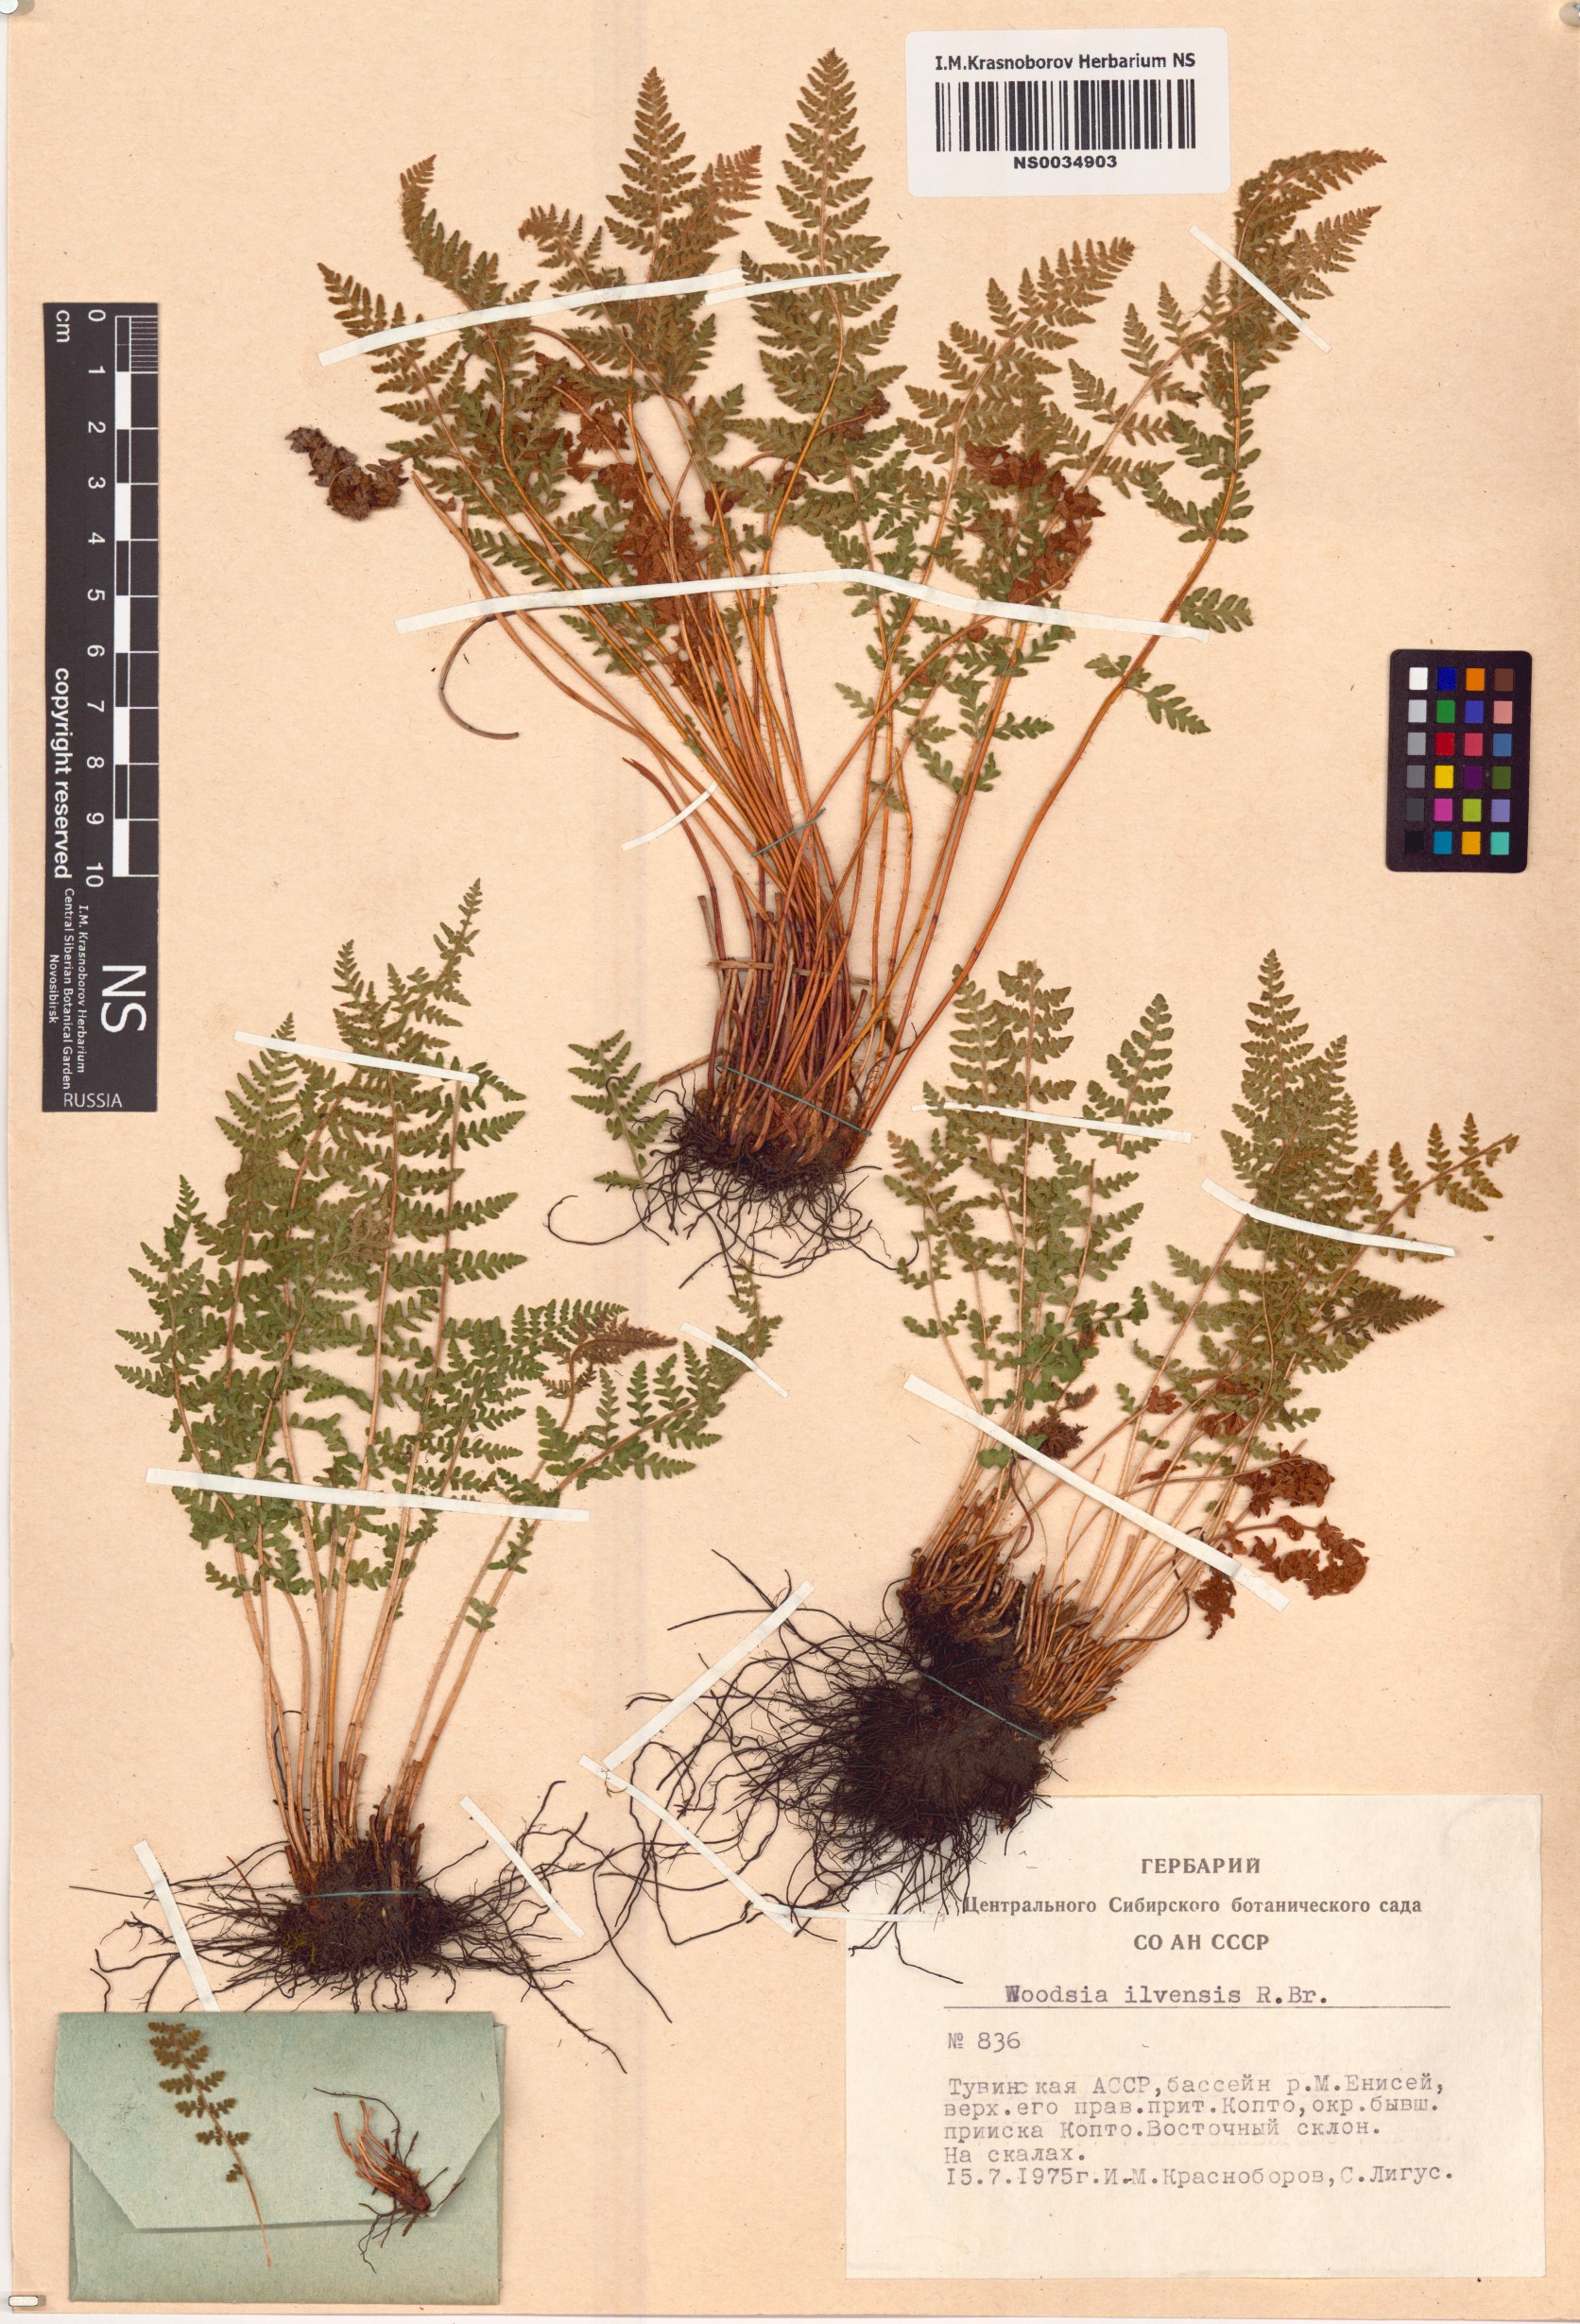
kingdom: Plantae
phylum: Tracheophyta
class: Polypodiopsida
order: Polypodiales
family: Woodsiaceae
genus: Woodsia
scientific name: Woodsia ilvensis
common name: Fragrant woodsia
